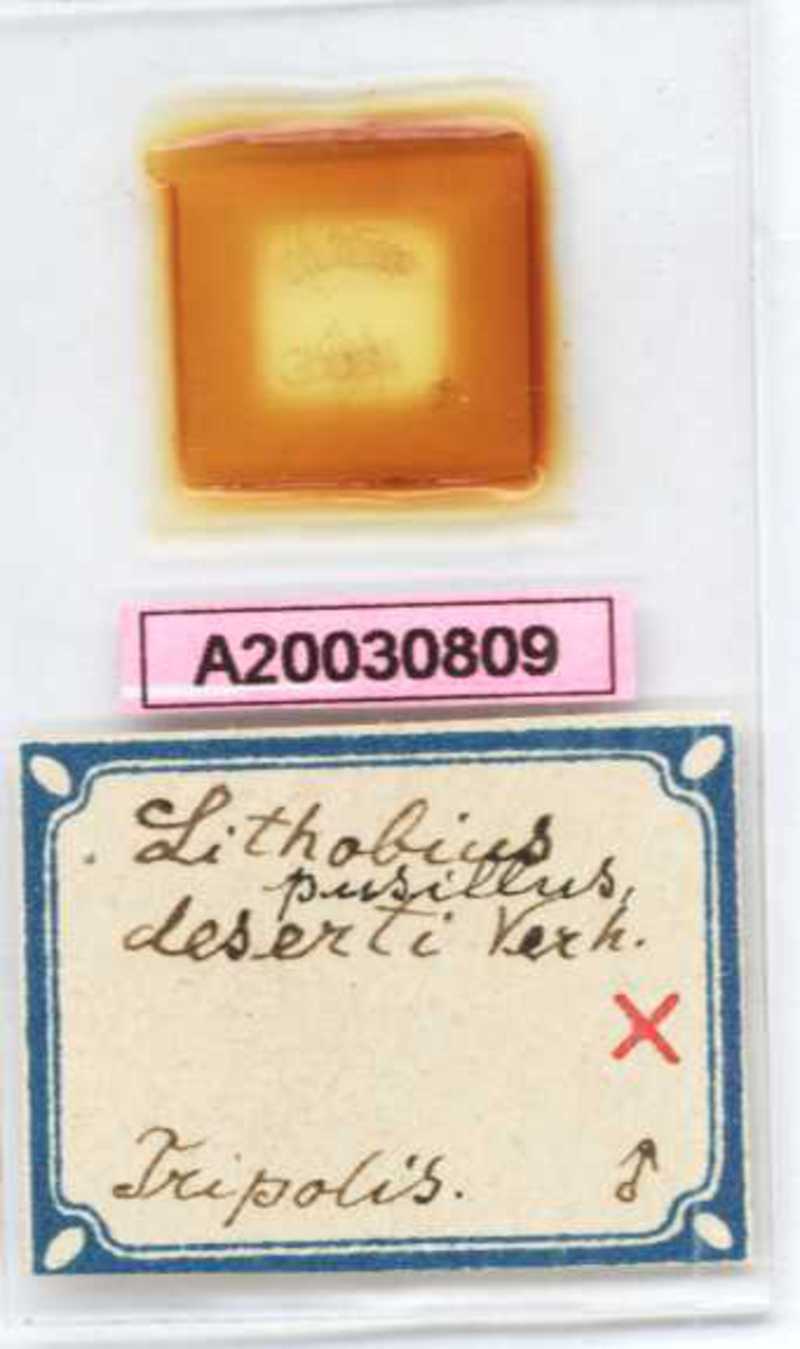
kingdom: Animalia
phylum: Arthropoda
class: Chilopoda
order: Lithobiomorpha
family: Lithobiidae
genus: Pleurolithobius
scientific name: Pleurolithobius patriarchalis
